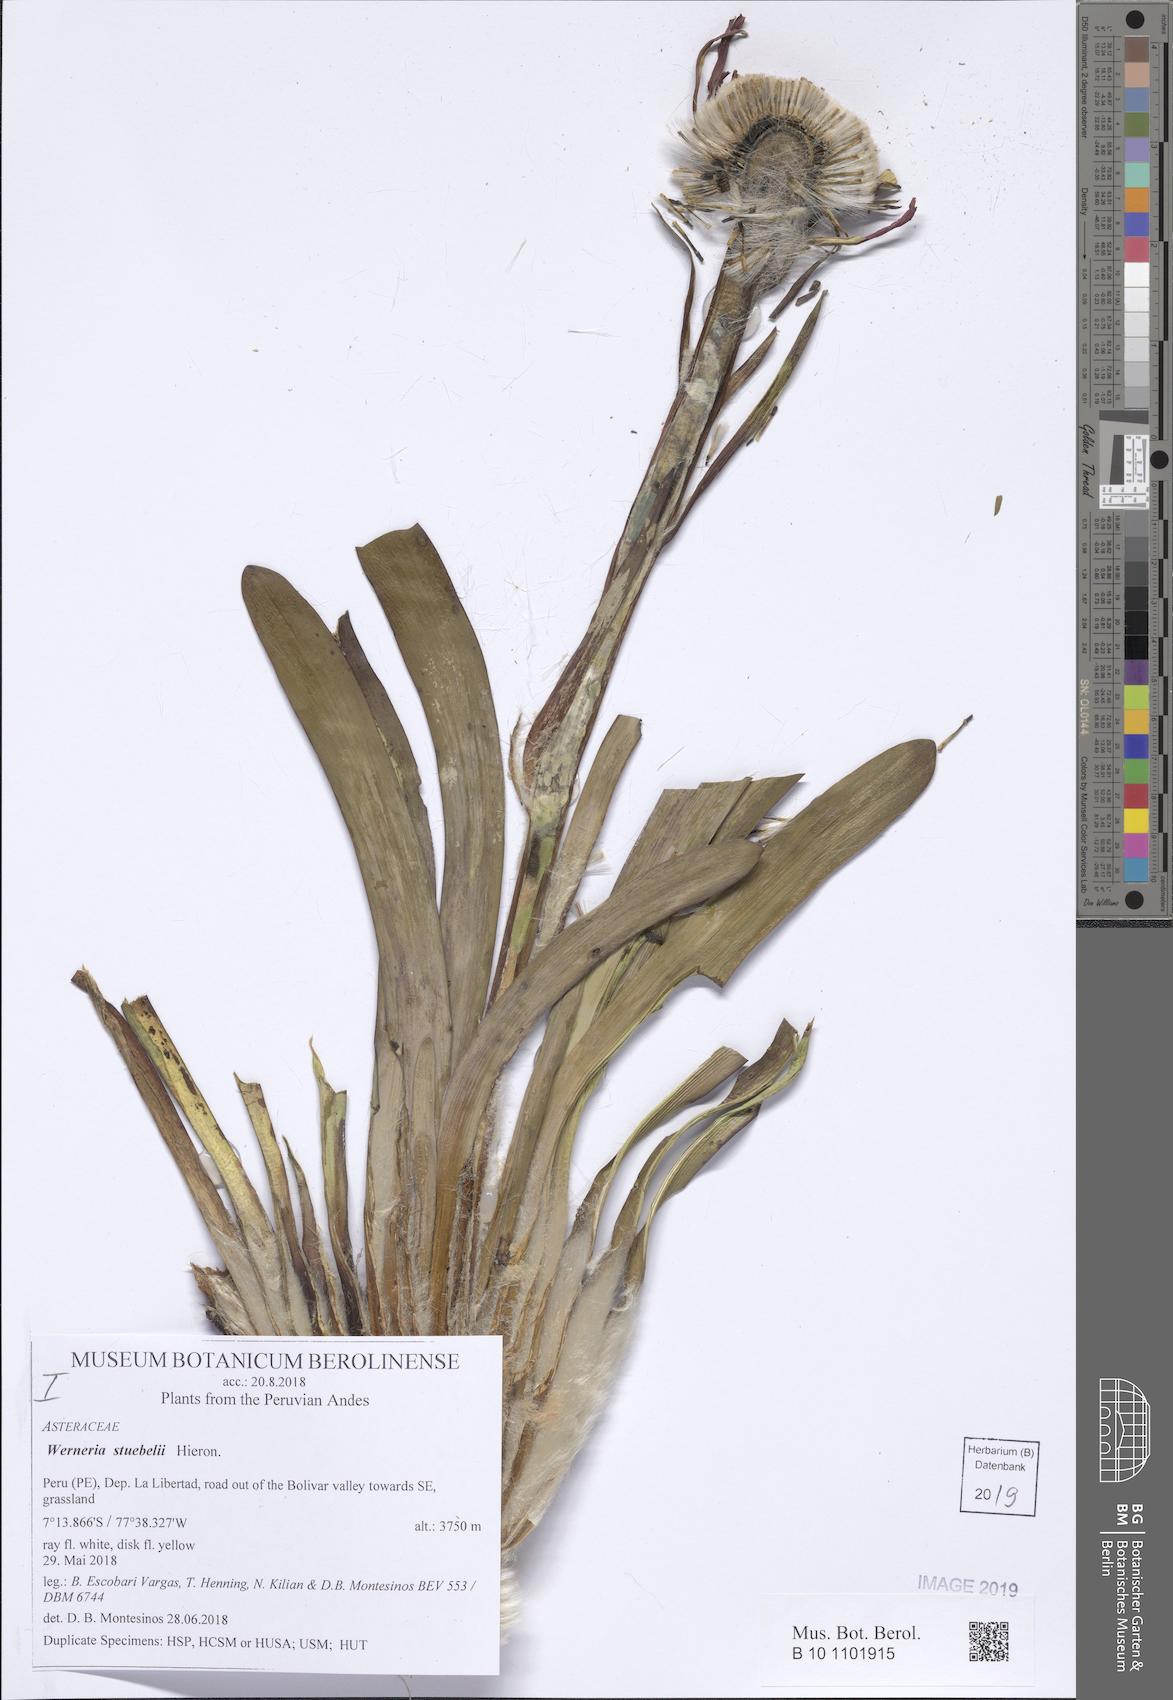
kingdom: Plantae
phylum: Tracheophyta
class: Magnoliopsida
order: Asterales
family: Asteraceae
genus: Rockhausenia
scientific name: Rockhausenia nubigena
